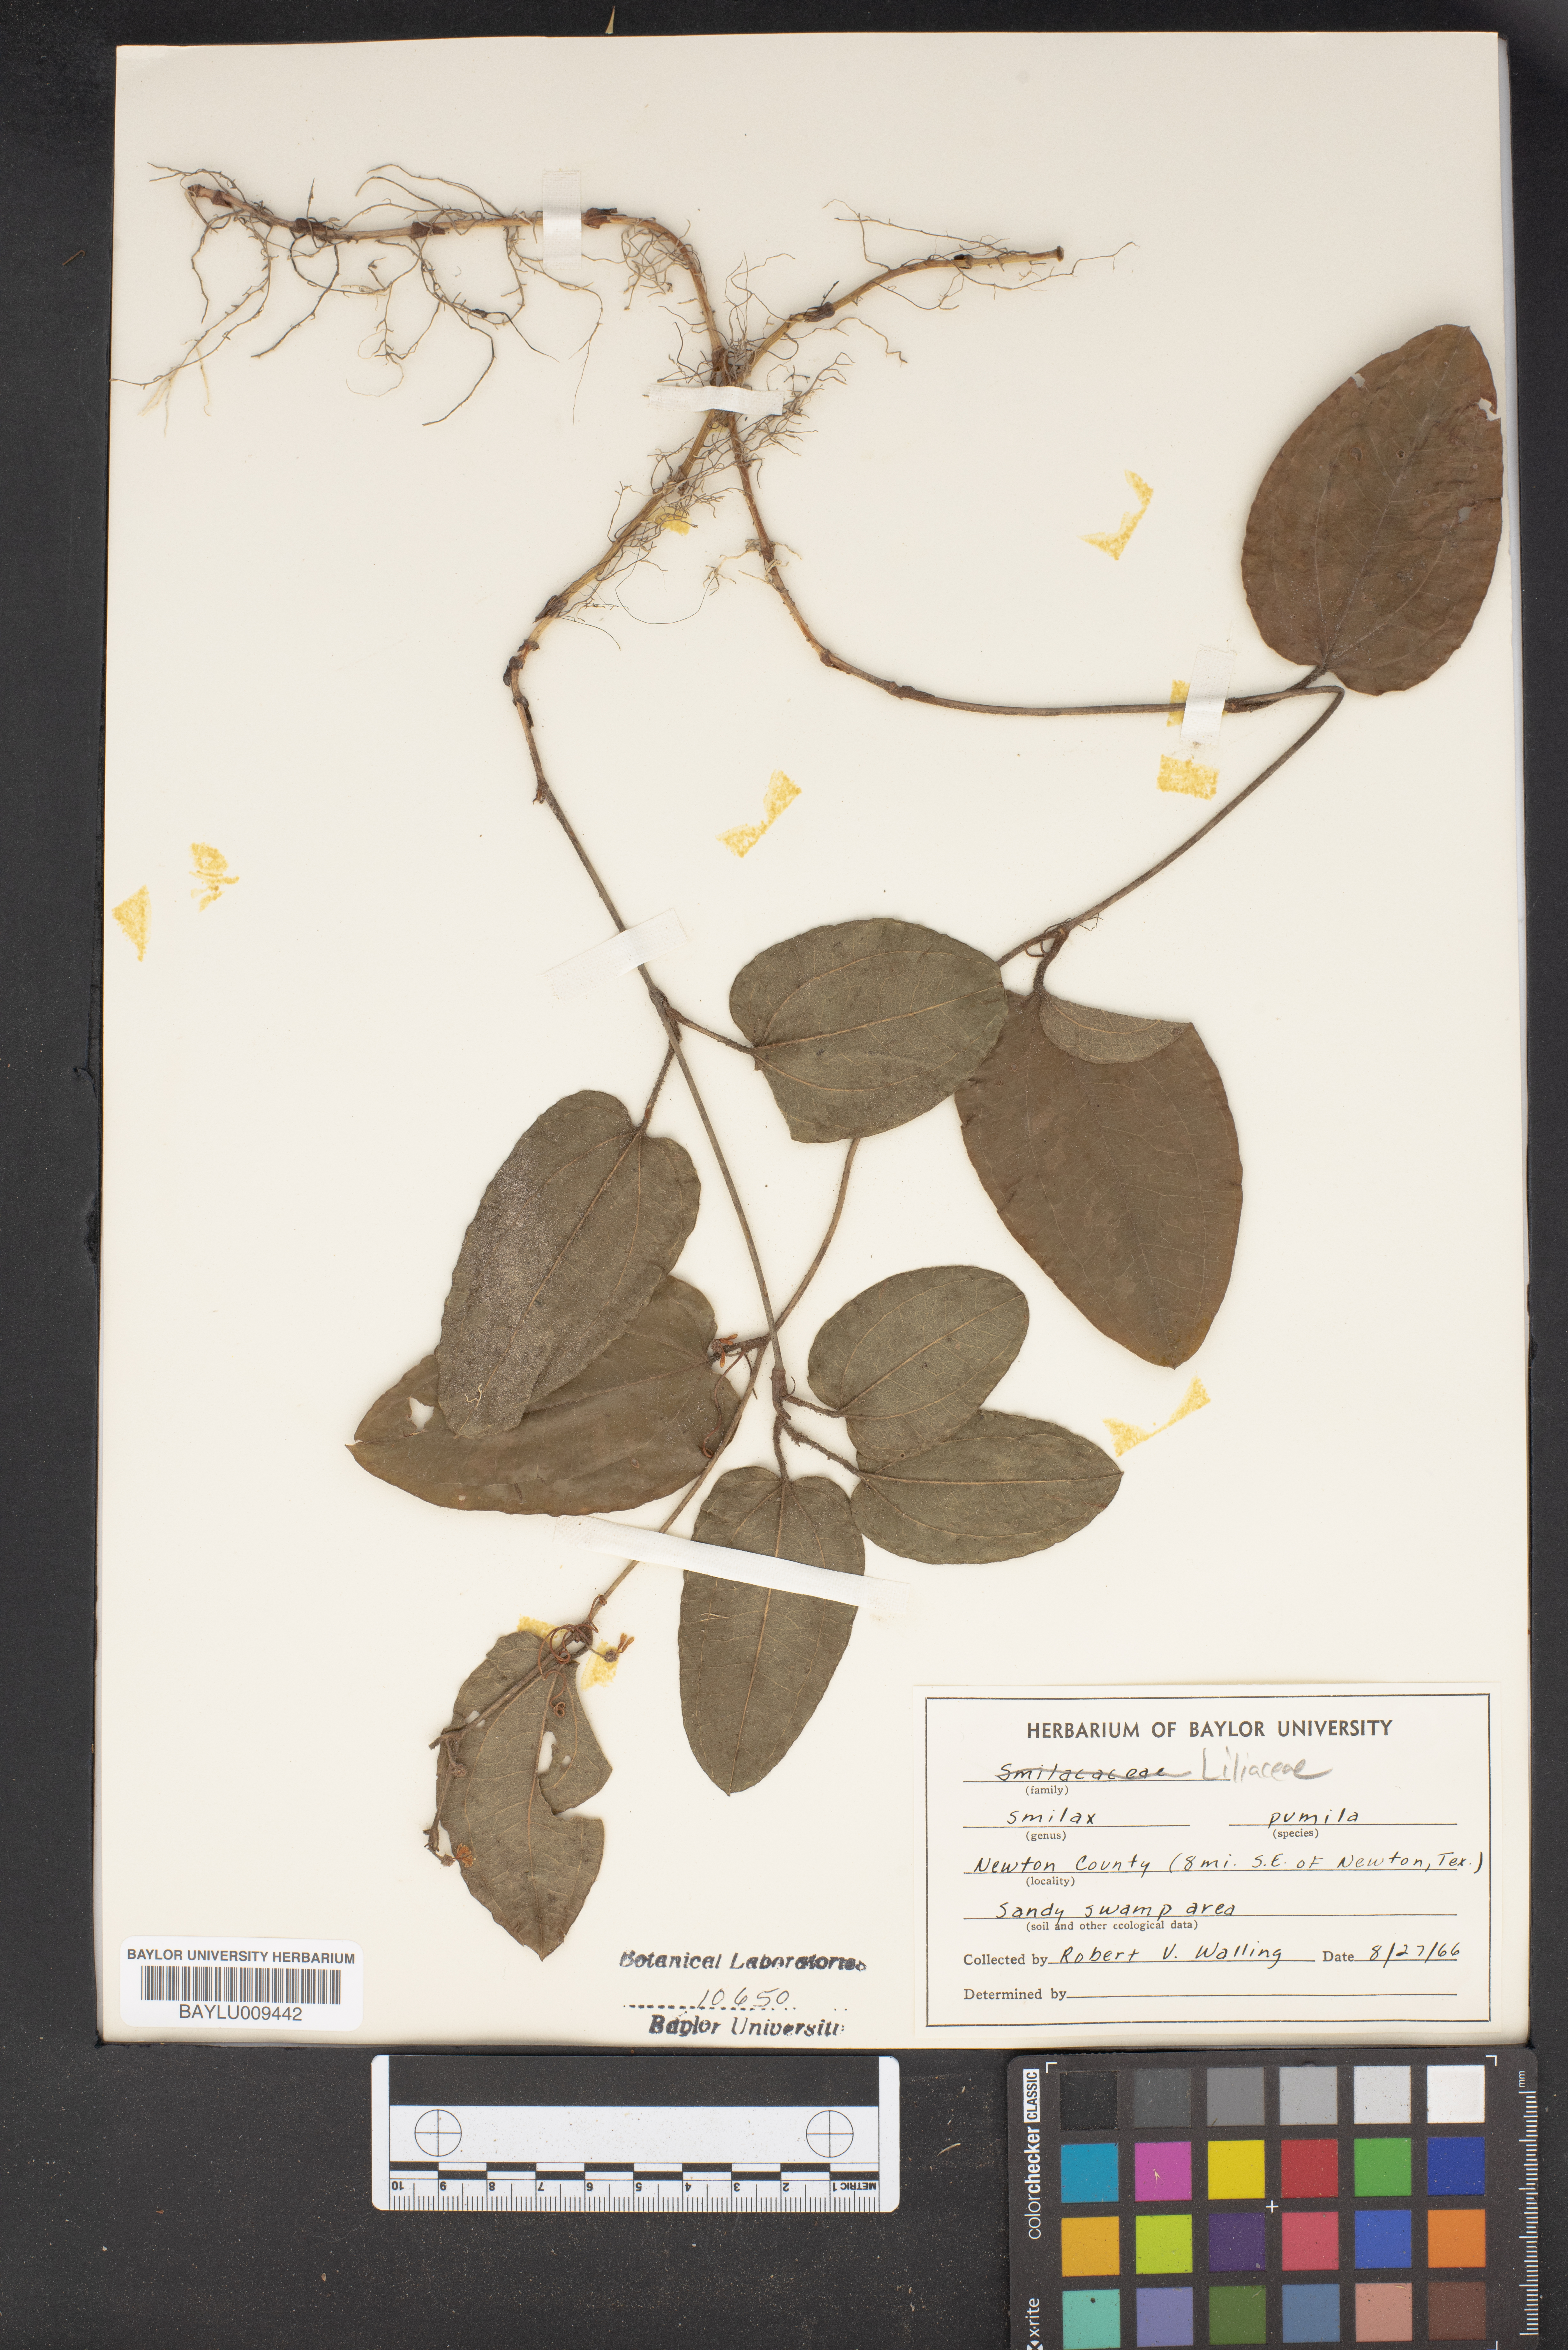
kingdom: Plantae
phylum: Tracheophyta
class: Liliopsida
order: Liliales
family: Smilacaceae
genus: Smilax
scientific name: Smilax pumila
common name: Sarsaparilla-vine
